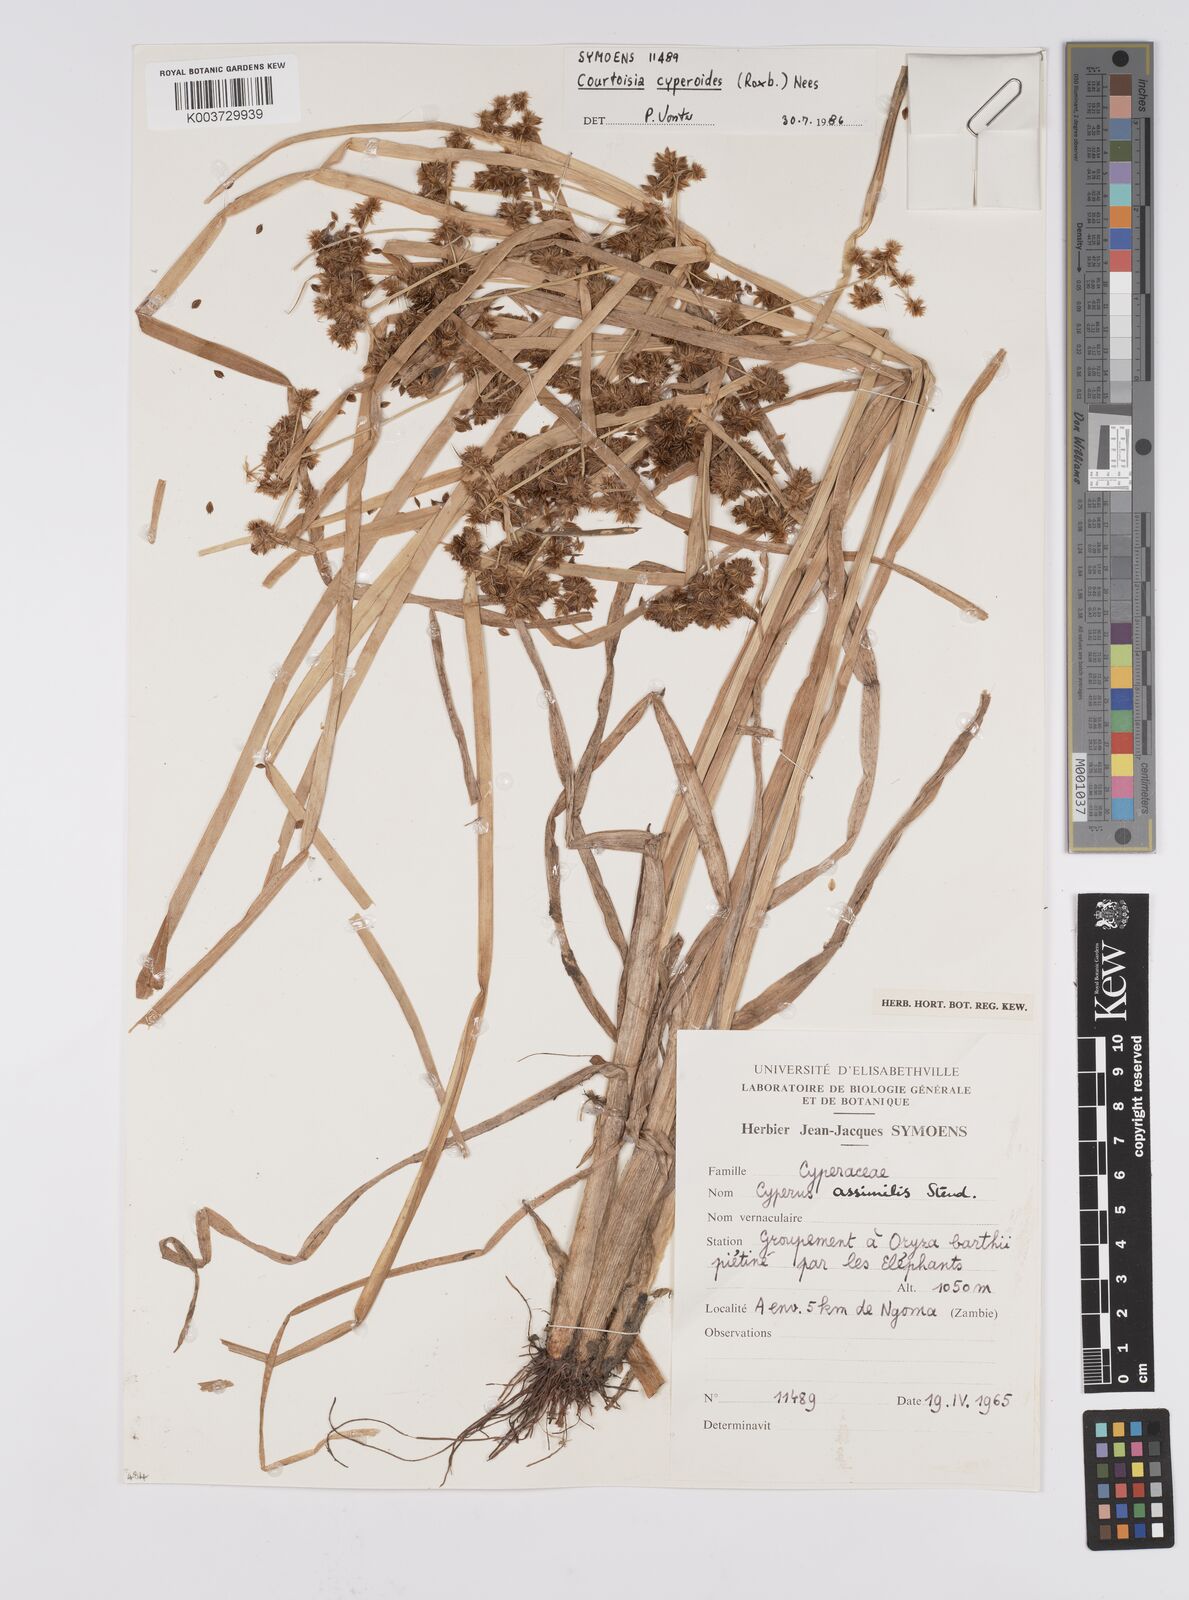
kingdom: Plantae
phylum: Tracheophyta
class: Liliopsida
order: Poales
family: Cyperaceae
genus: Cyperus
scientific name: Cyperus cyperoides
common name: Pacific island flat sedge
